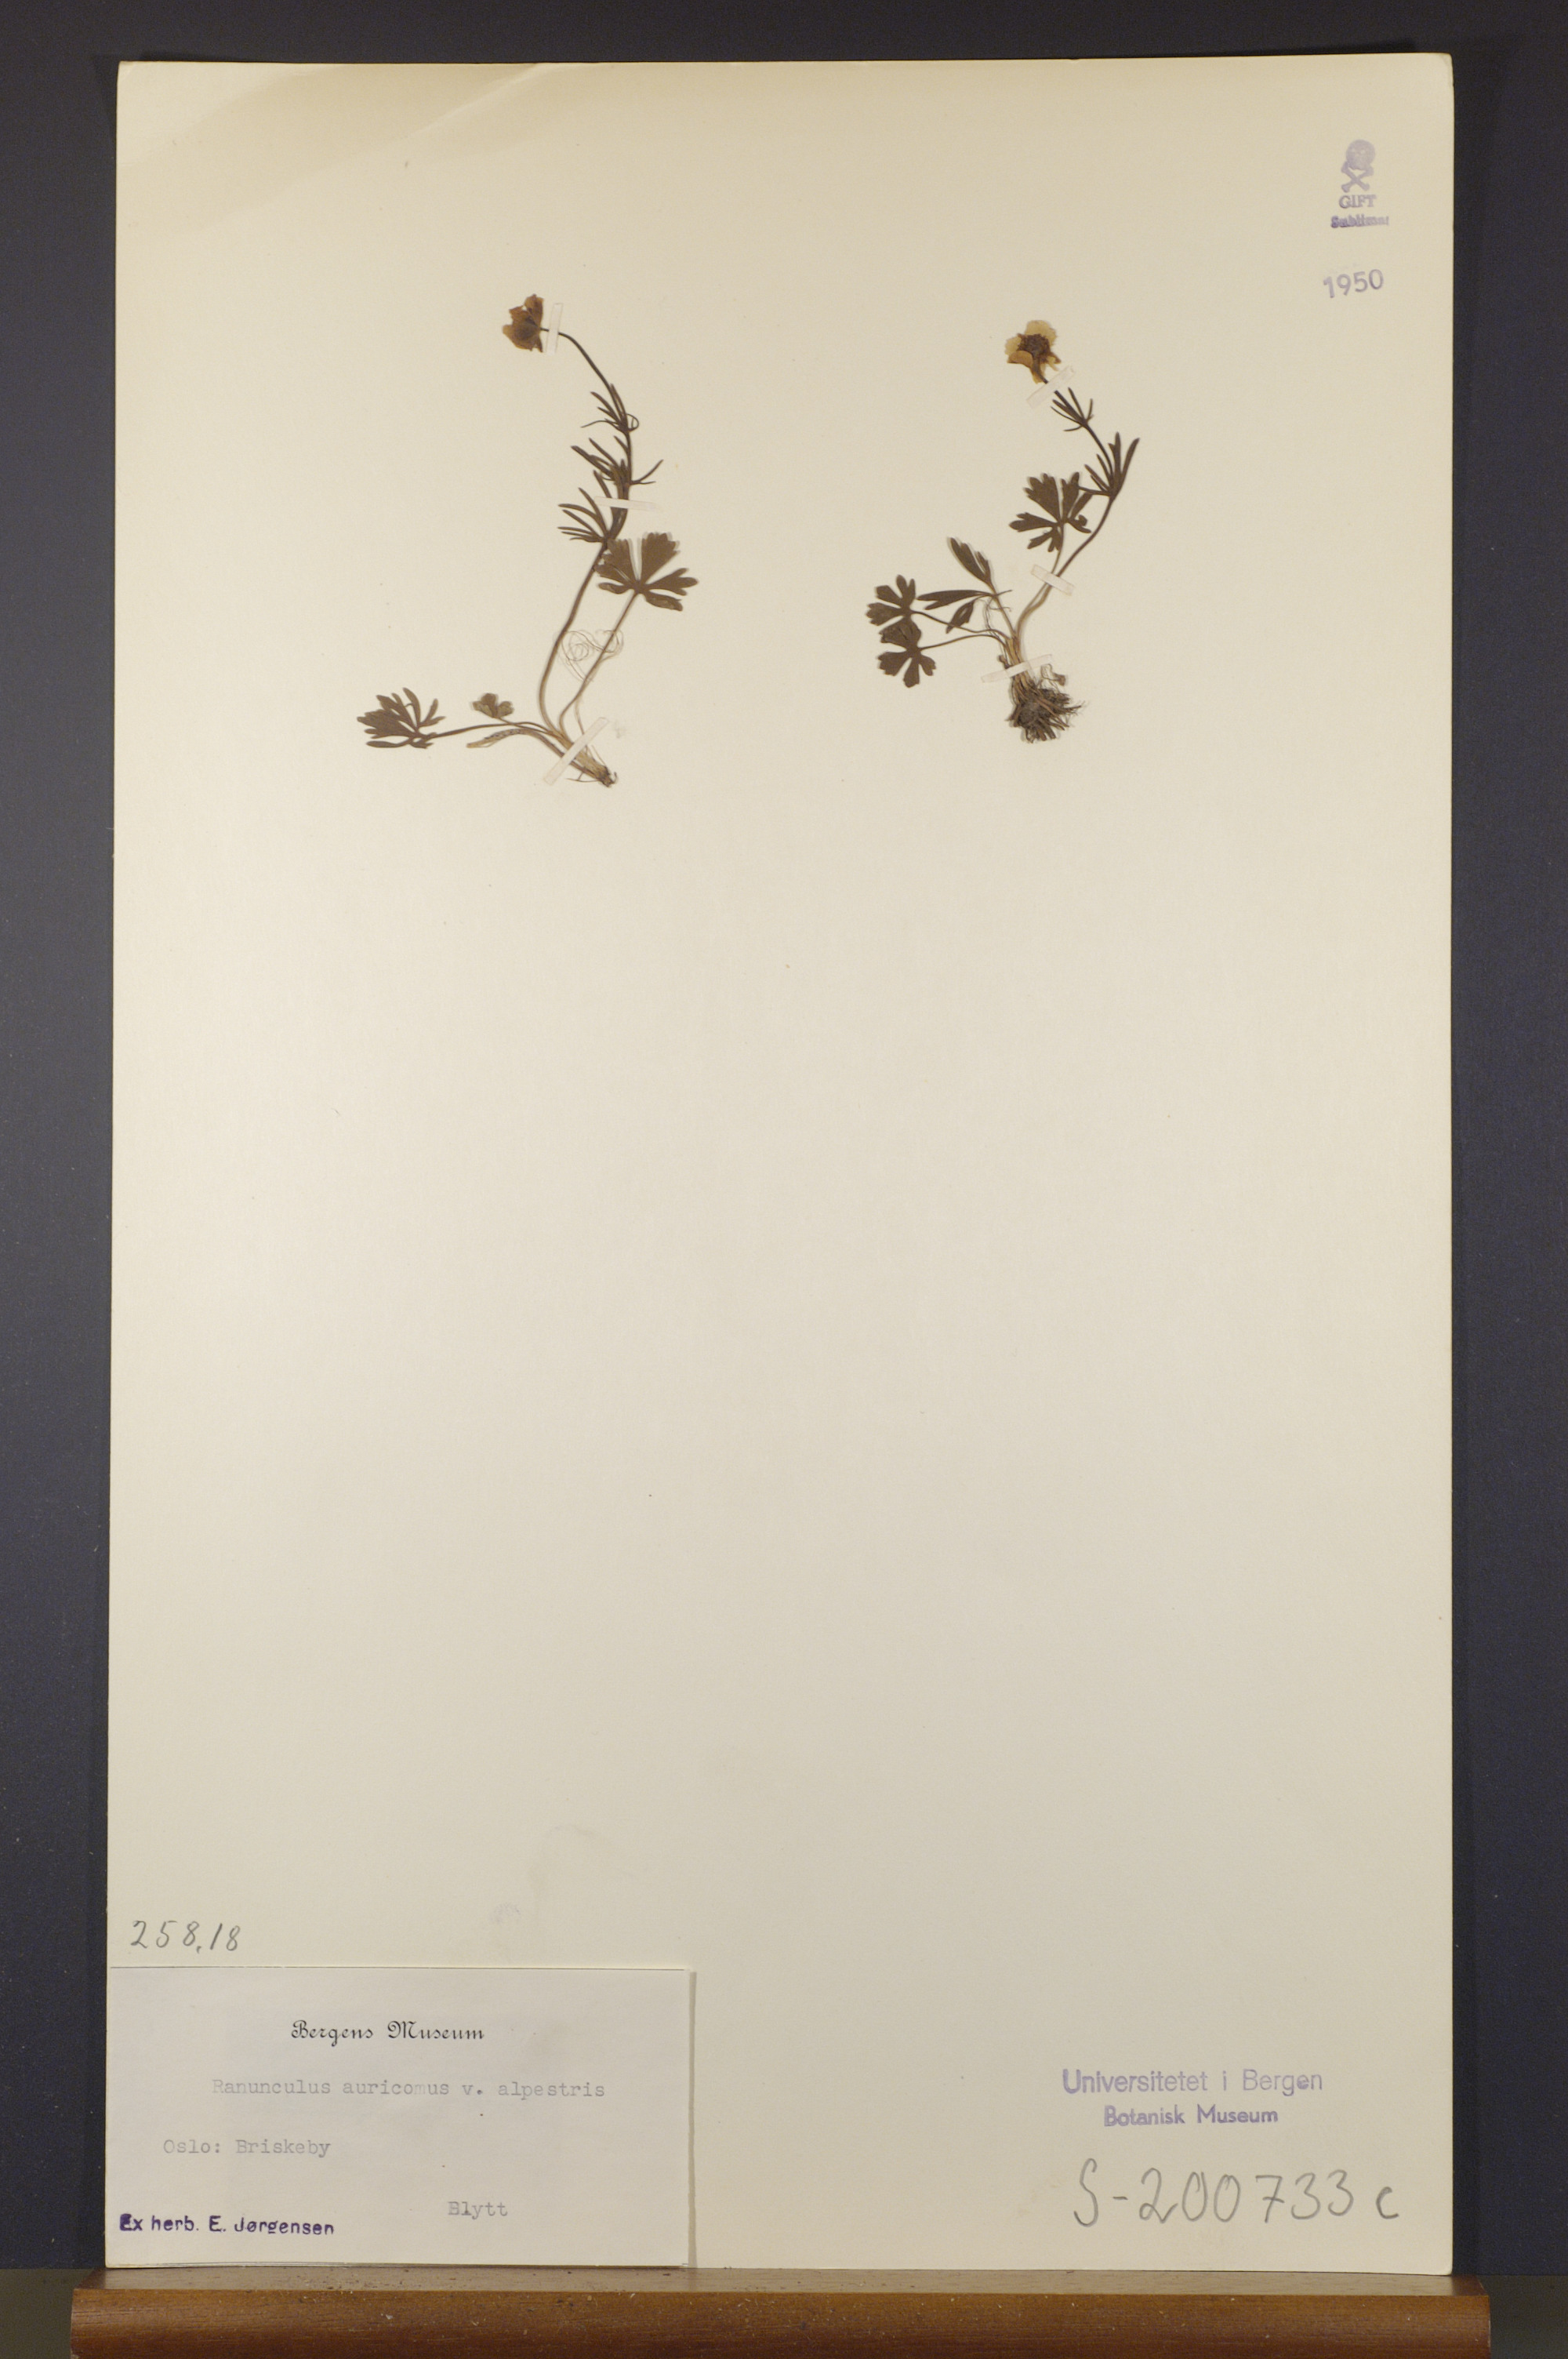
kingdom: Plantae
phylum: Tracheophyta
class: Magnoliopsida
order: Ranunculales
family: Ranunculaceae
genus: Ranunculus
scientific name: Ranunculus auricomus
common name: Goldilocks buttercup
